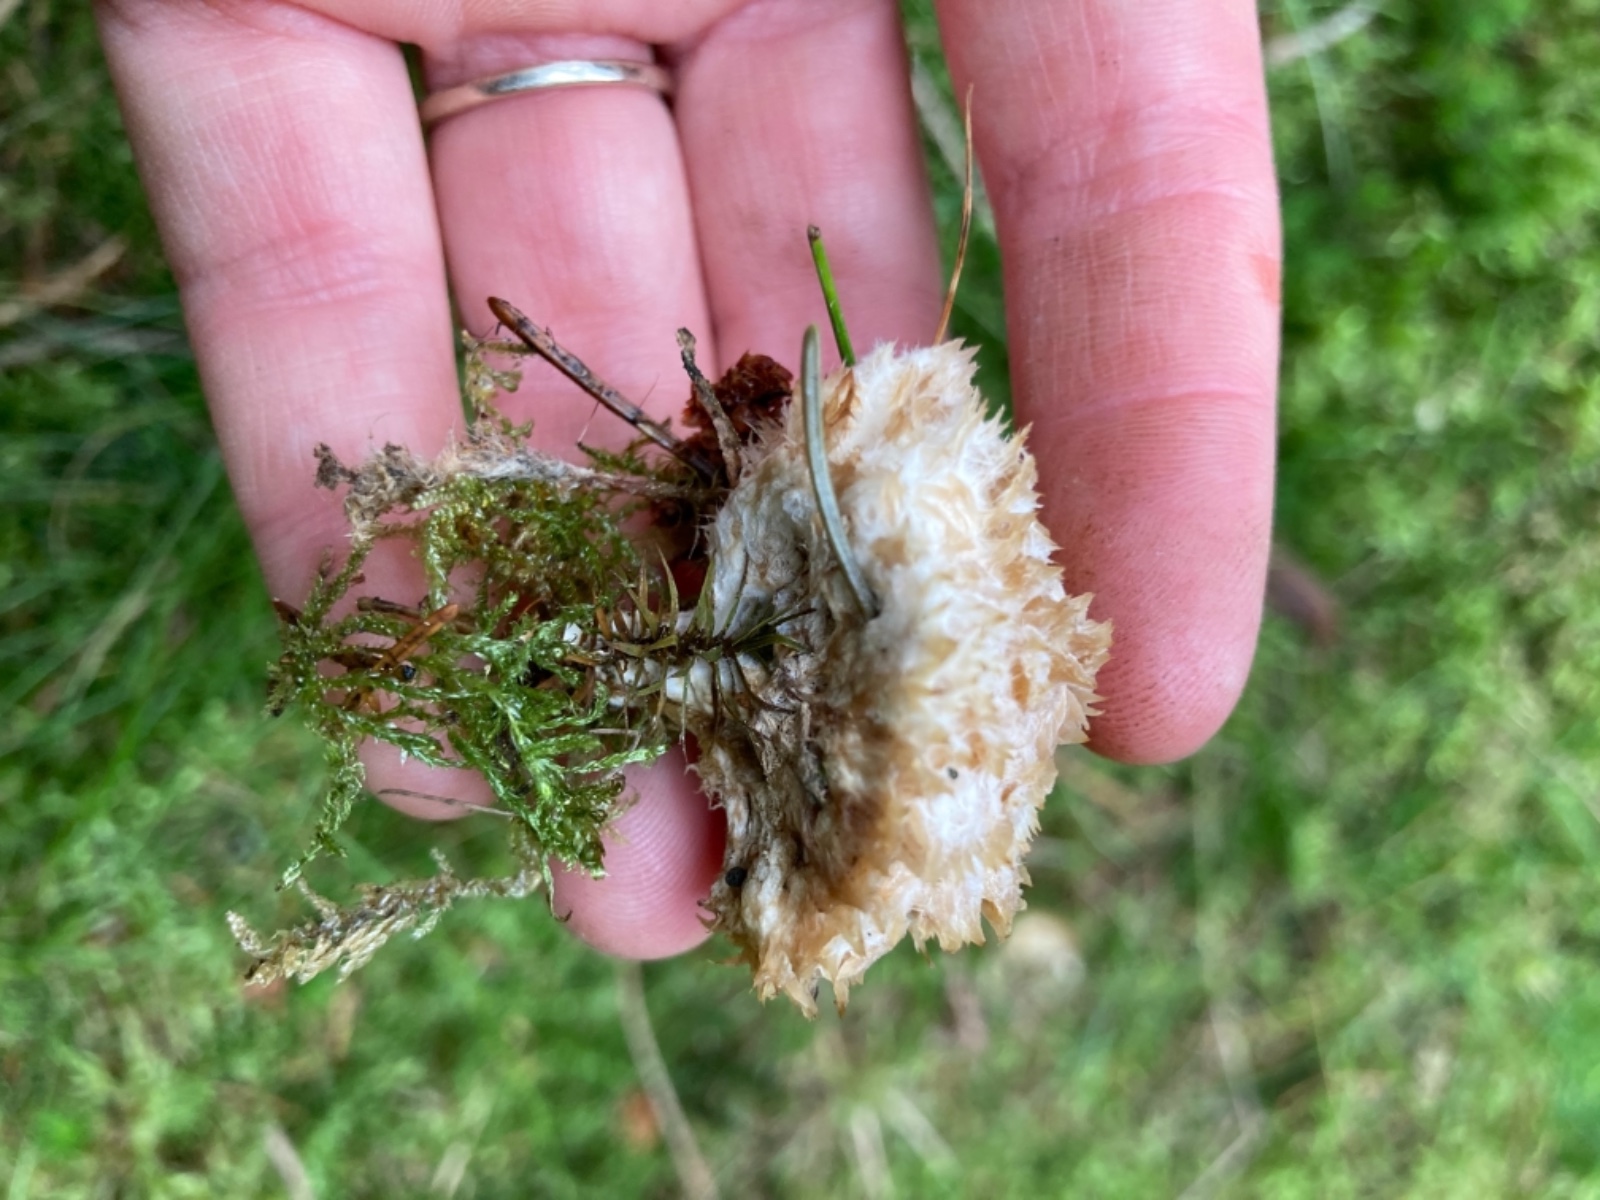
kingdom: Fungi
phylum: Basidiomycota
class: Agaricomycetes
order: Polyporales
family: Dacryobolaceae
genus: Postia
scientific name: Postia ptychogaster
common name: støvende kødporesvamp
